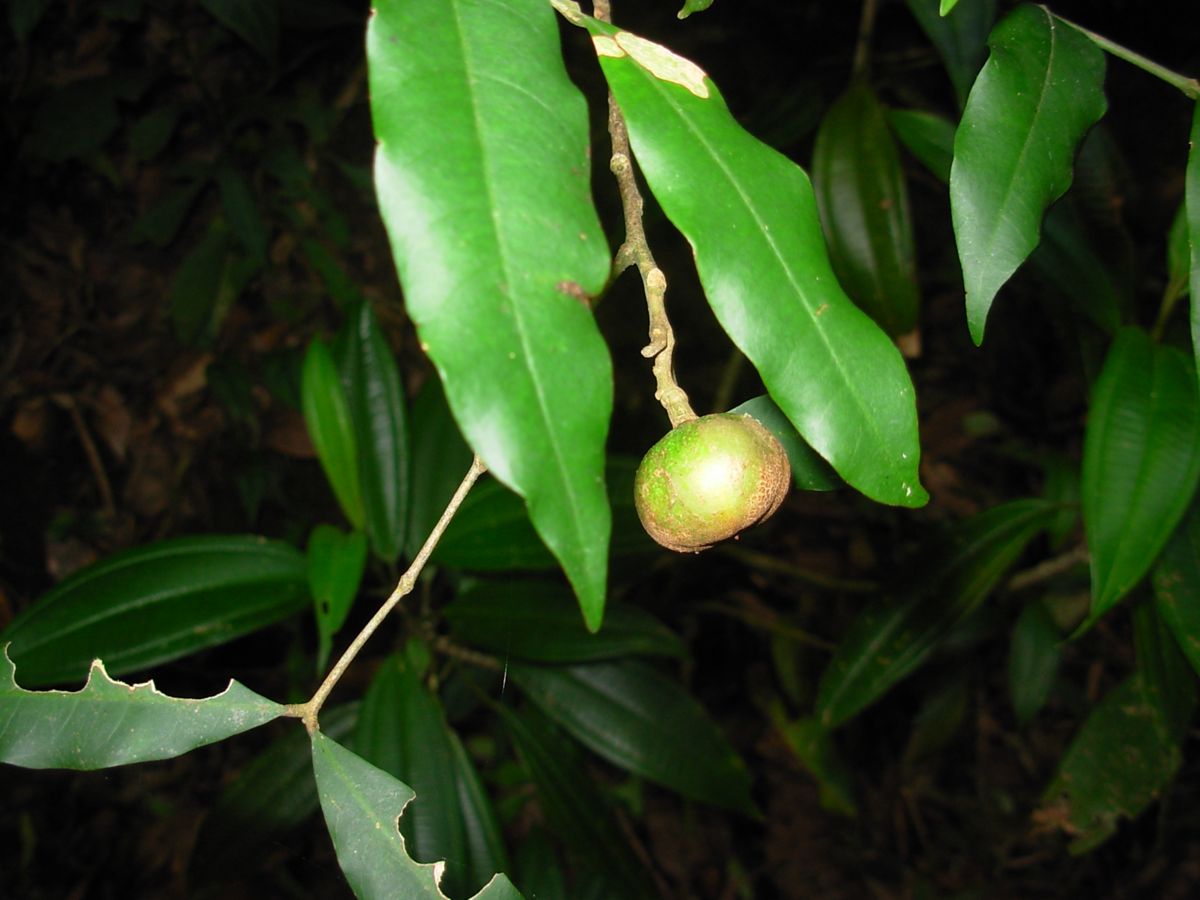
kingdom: Plantae
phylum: Tracheophyta
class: Magnoliopsida
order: Sapindales
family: Meliaceae
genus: Guarea
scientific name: Guarea luxii
